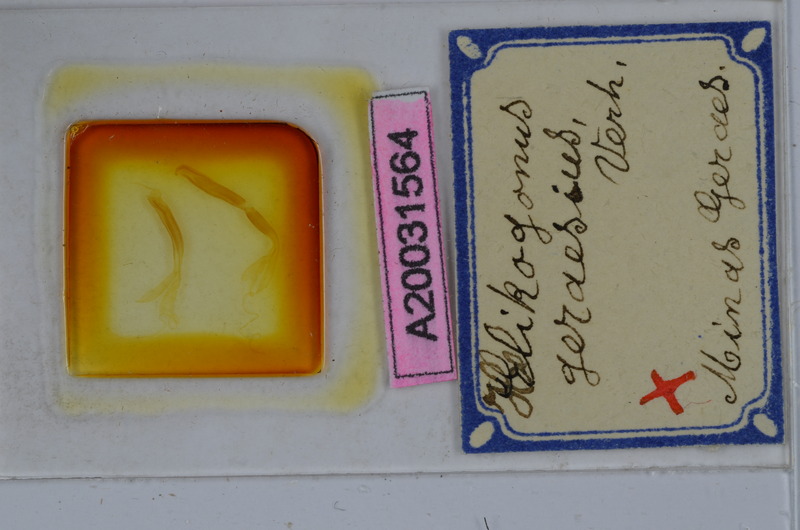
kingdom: Animalia
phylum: Arthropoda
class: Diplopoda
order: Spirostreptida
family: Spirostreptidae
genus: Helicogonus
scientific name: Helicogonus geraesius
